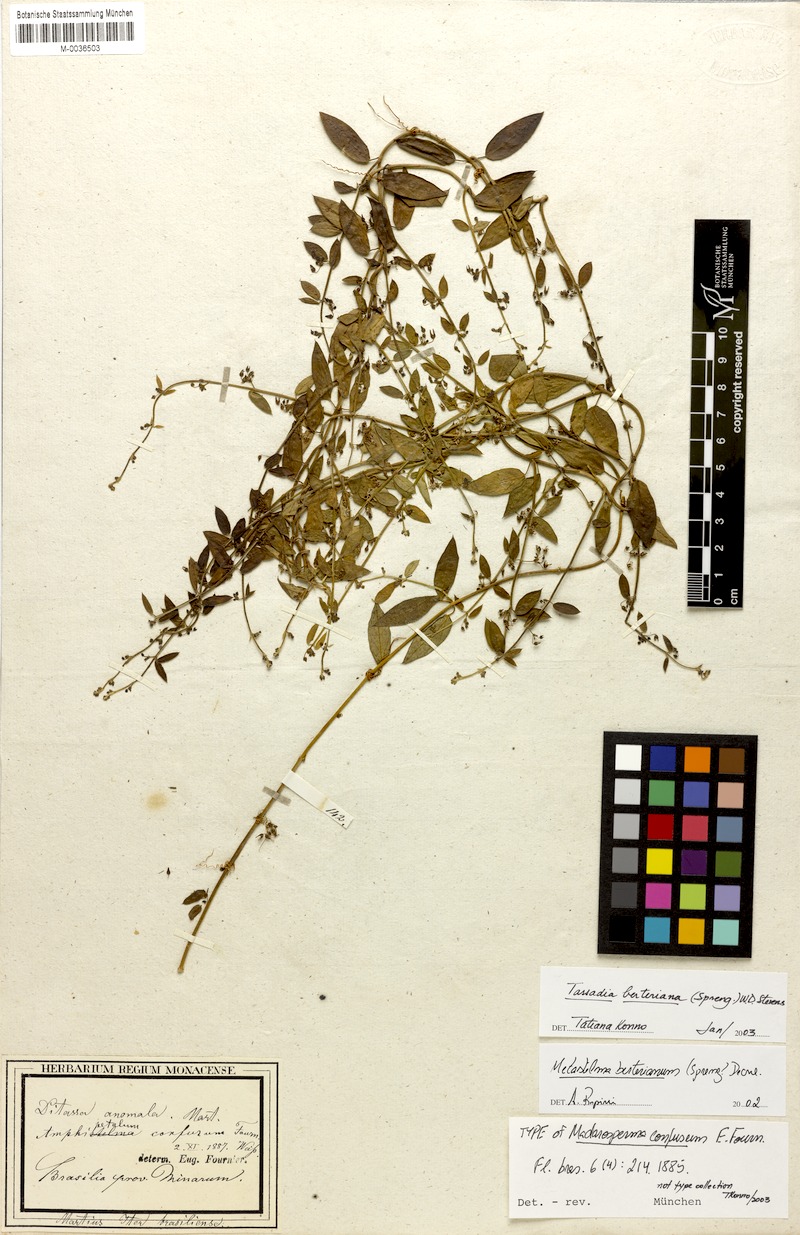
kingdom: Plantae
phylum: Tracheophyta
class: Magnoliopsida
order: Gentianales
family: Apocynaceae
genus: Tassadia
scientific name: Tassadia berteroana
